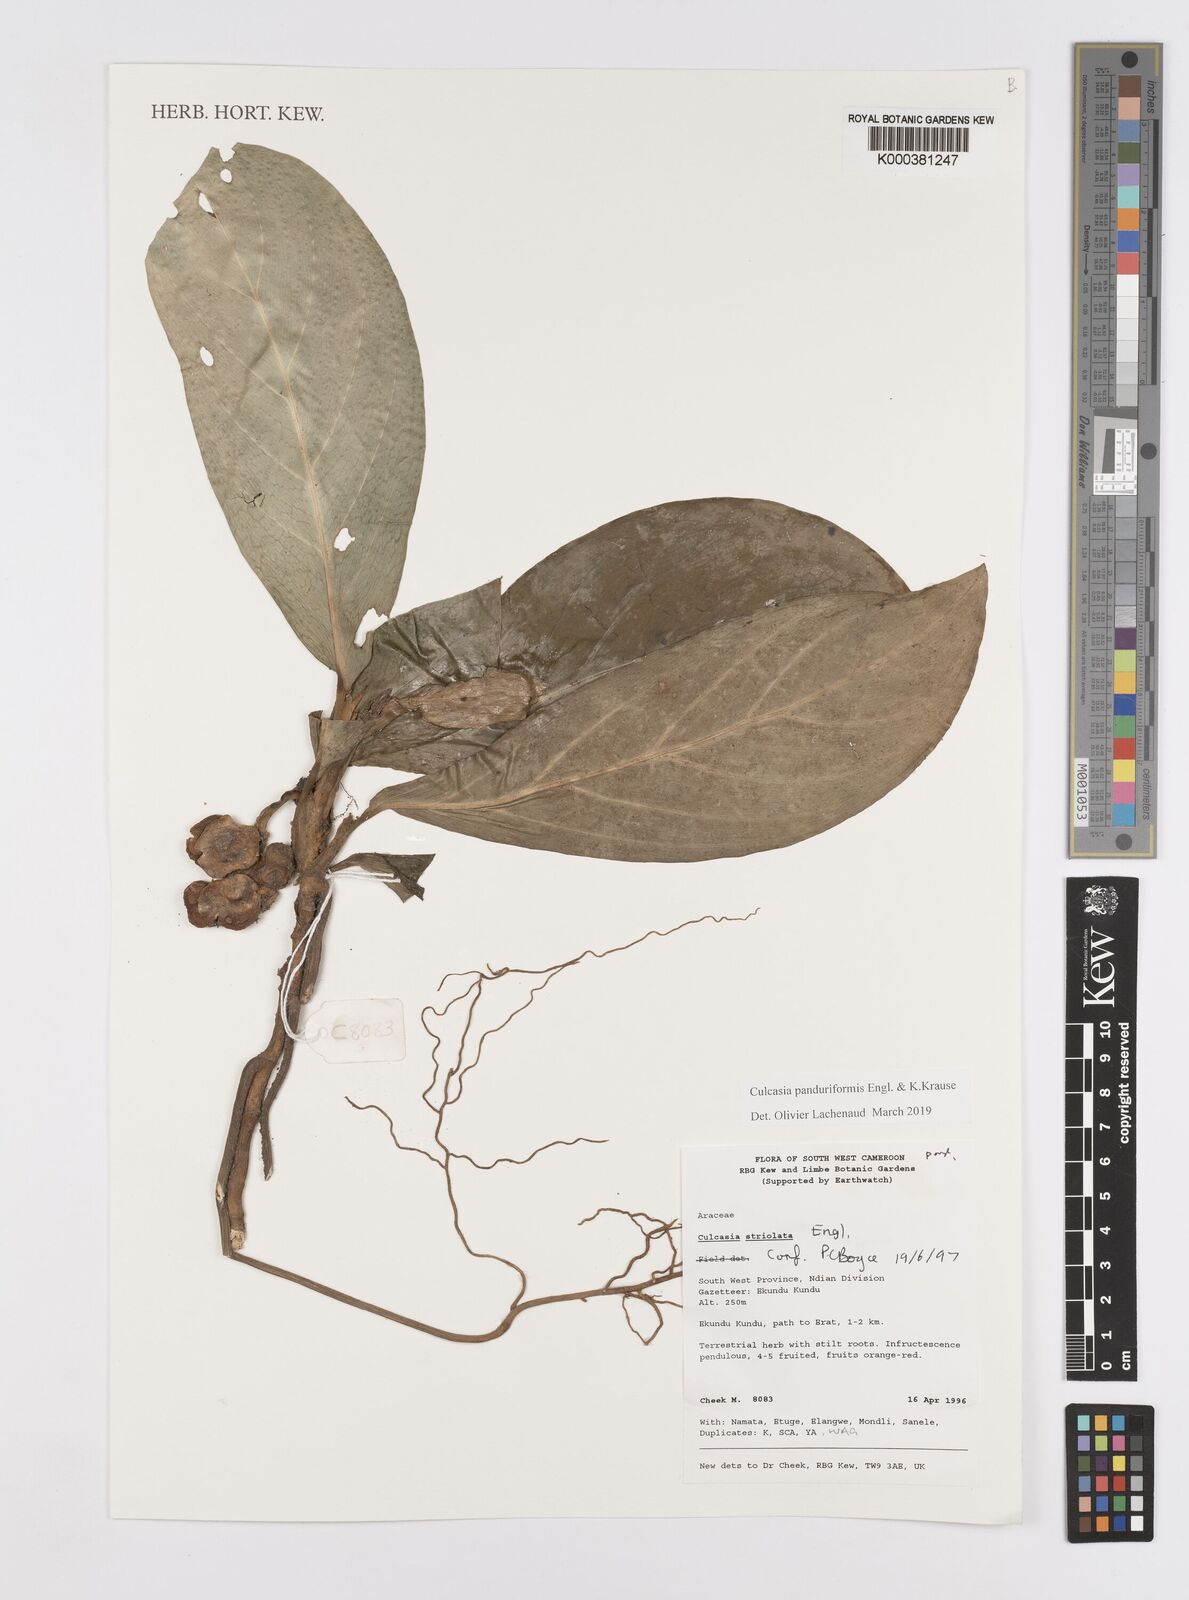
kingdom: Plantae
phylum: Tracheophyta
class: Liliopsida
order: Alismatales
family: Araceae
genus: Culcasia
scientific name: Culcasia panduriformis
